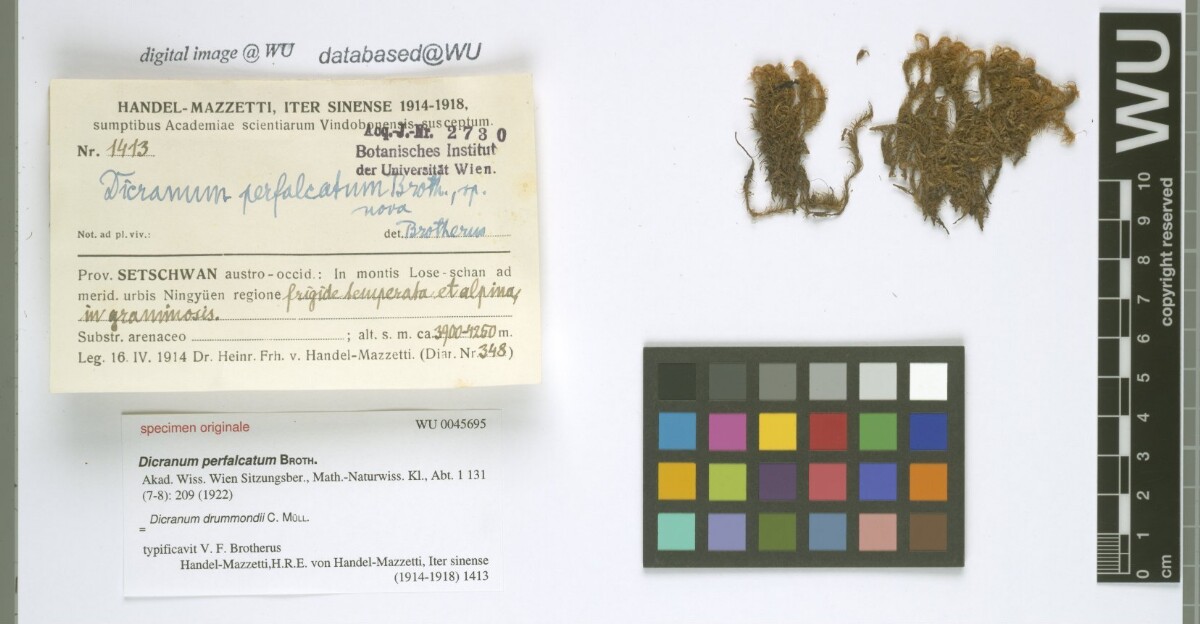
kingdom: Plantae
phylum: Bryophyta
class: Bryopsida
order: Dicranales
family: Dicranaceae
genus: Dicranum
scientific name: Dicranum drummondii
